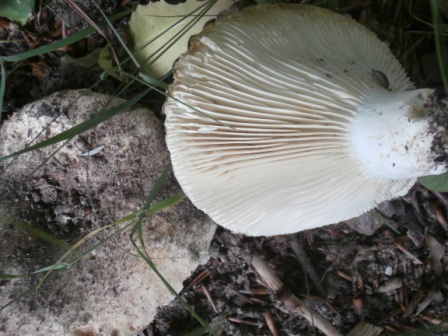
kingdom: Fungi
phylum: Basidiomycota
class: Agaricomycetes
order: Russulales
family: Russulaceae
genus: Russula
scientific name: Russula delica
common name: almindelig tragt-skørhat
